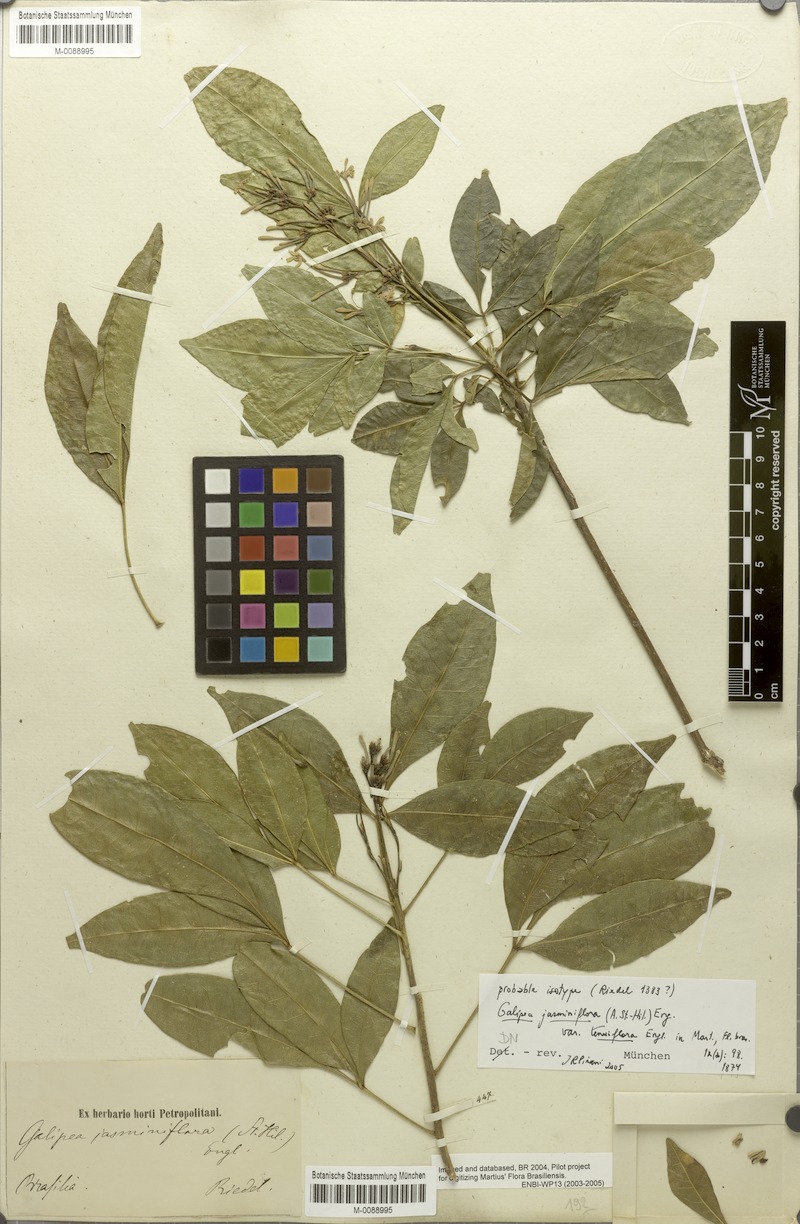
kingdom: Plantae
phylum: Tracheophyta
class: Magnoliopsida
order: Sapindales
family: Rutaceae
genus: Galipea
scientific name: Galipea jasminiflora
